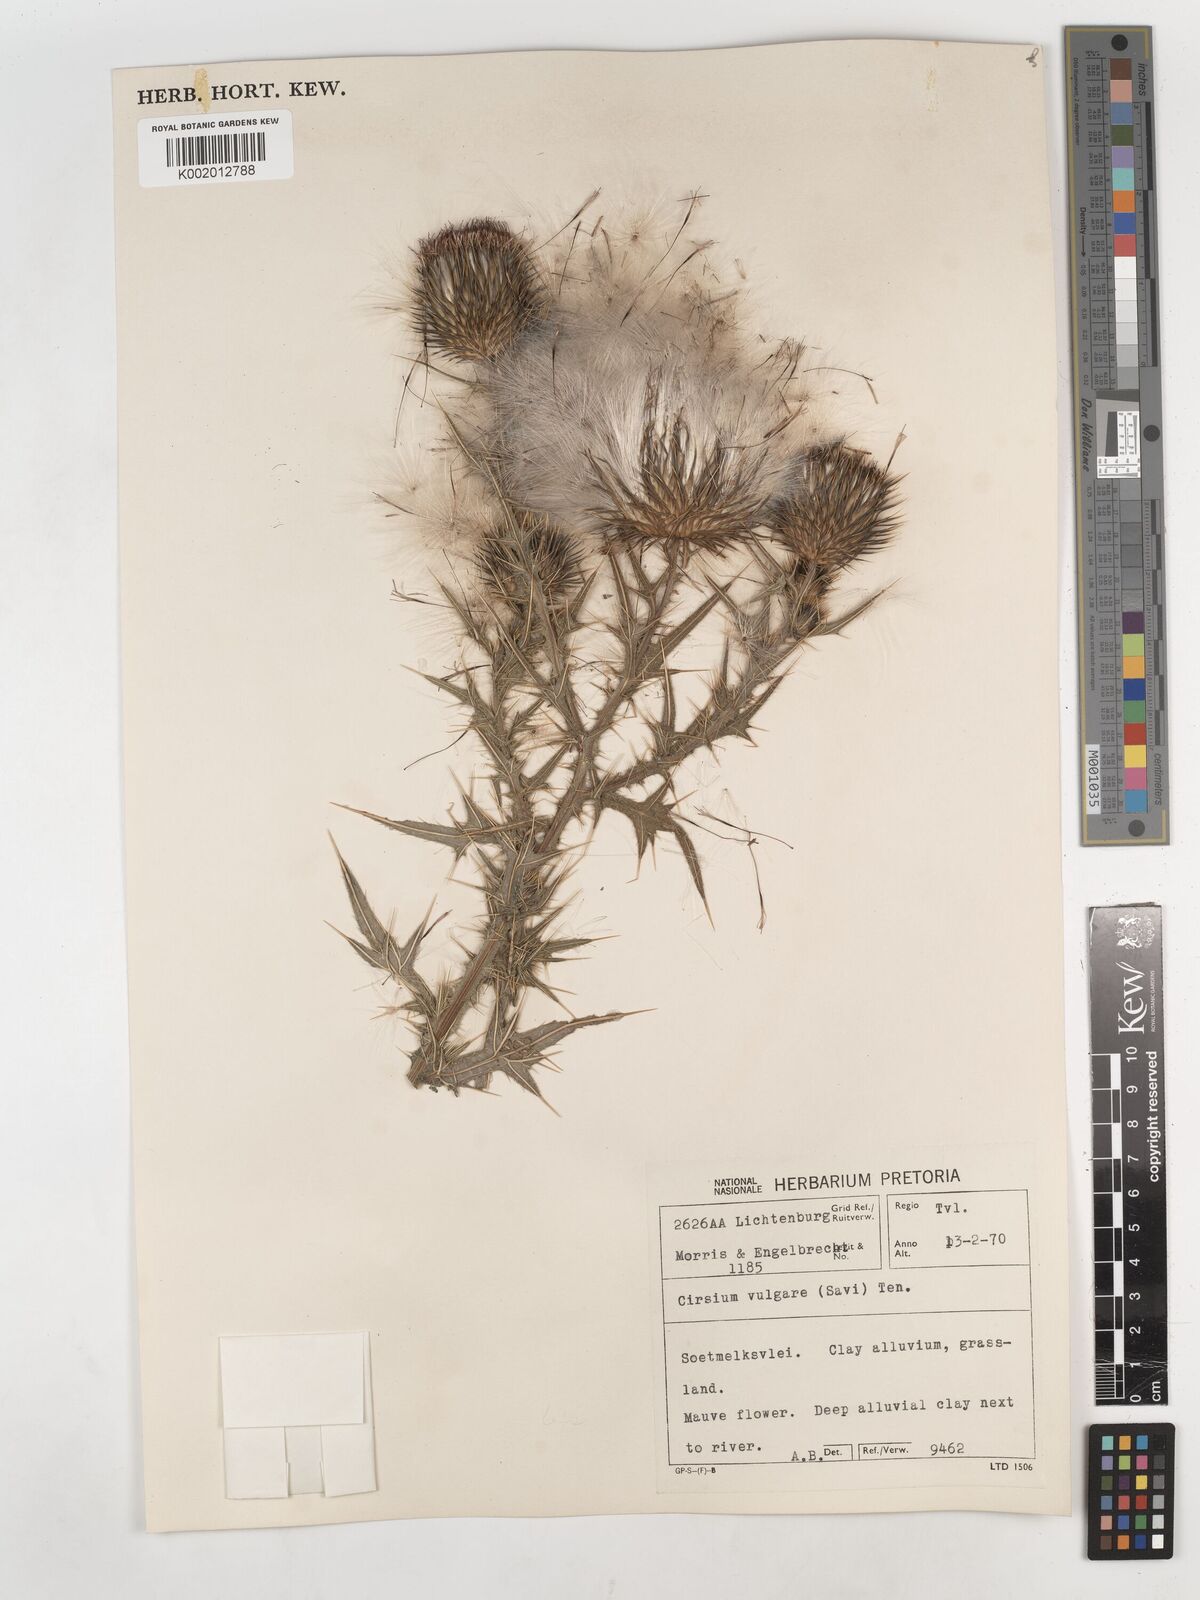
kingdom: Plantae
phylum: Tracheophyta
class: Magnoliopsida
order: Asterales
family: Asteraceae
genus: Cirsium
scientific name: Cirsium vulgare
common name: Bull thistle
